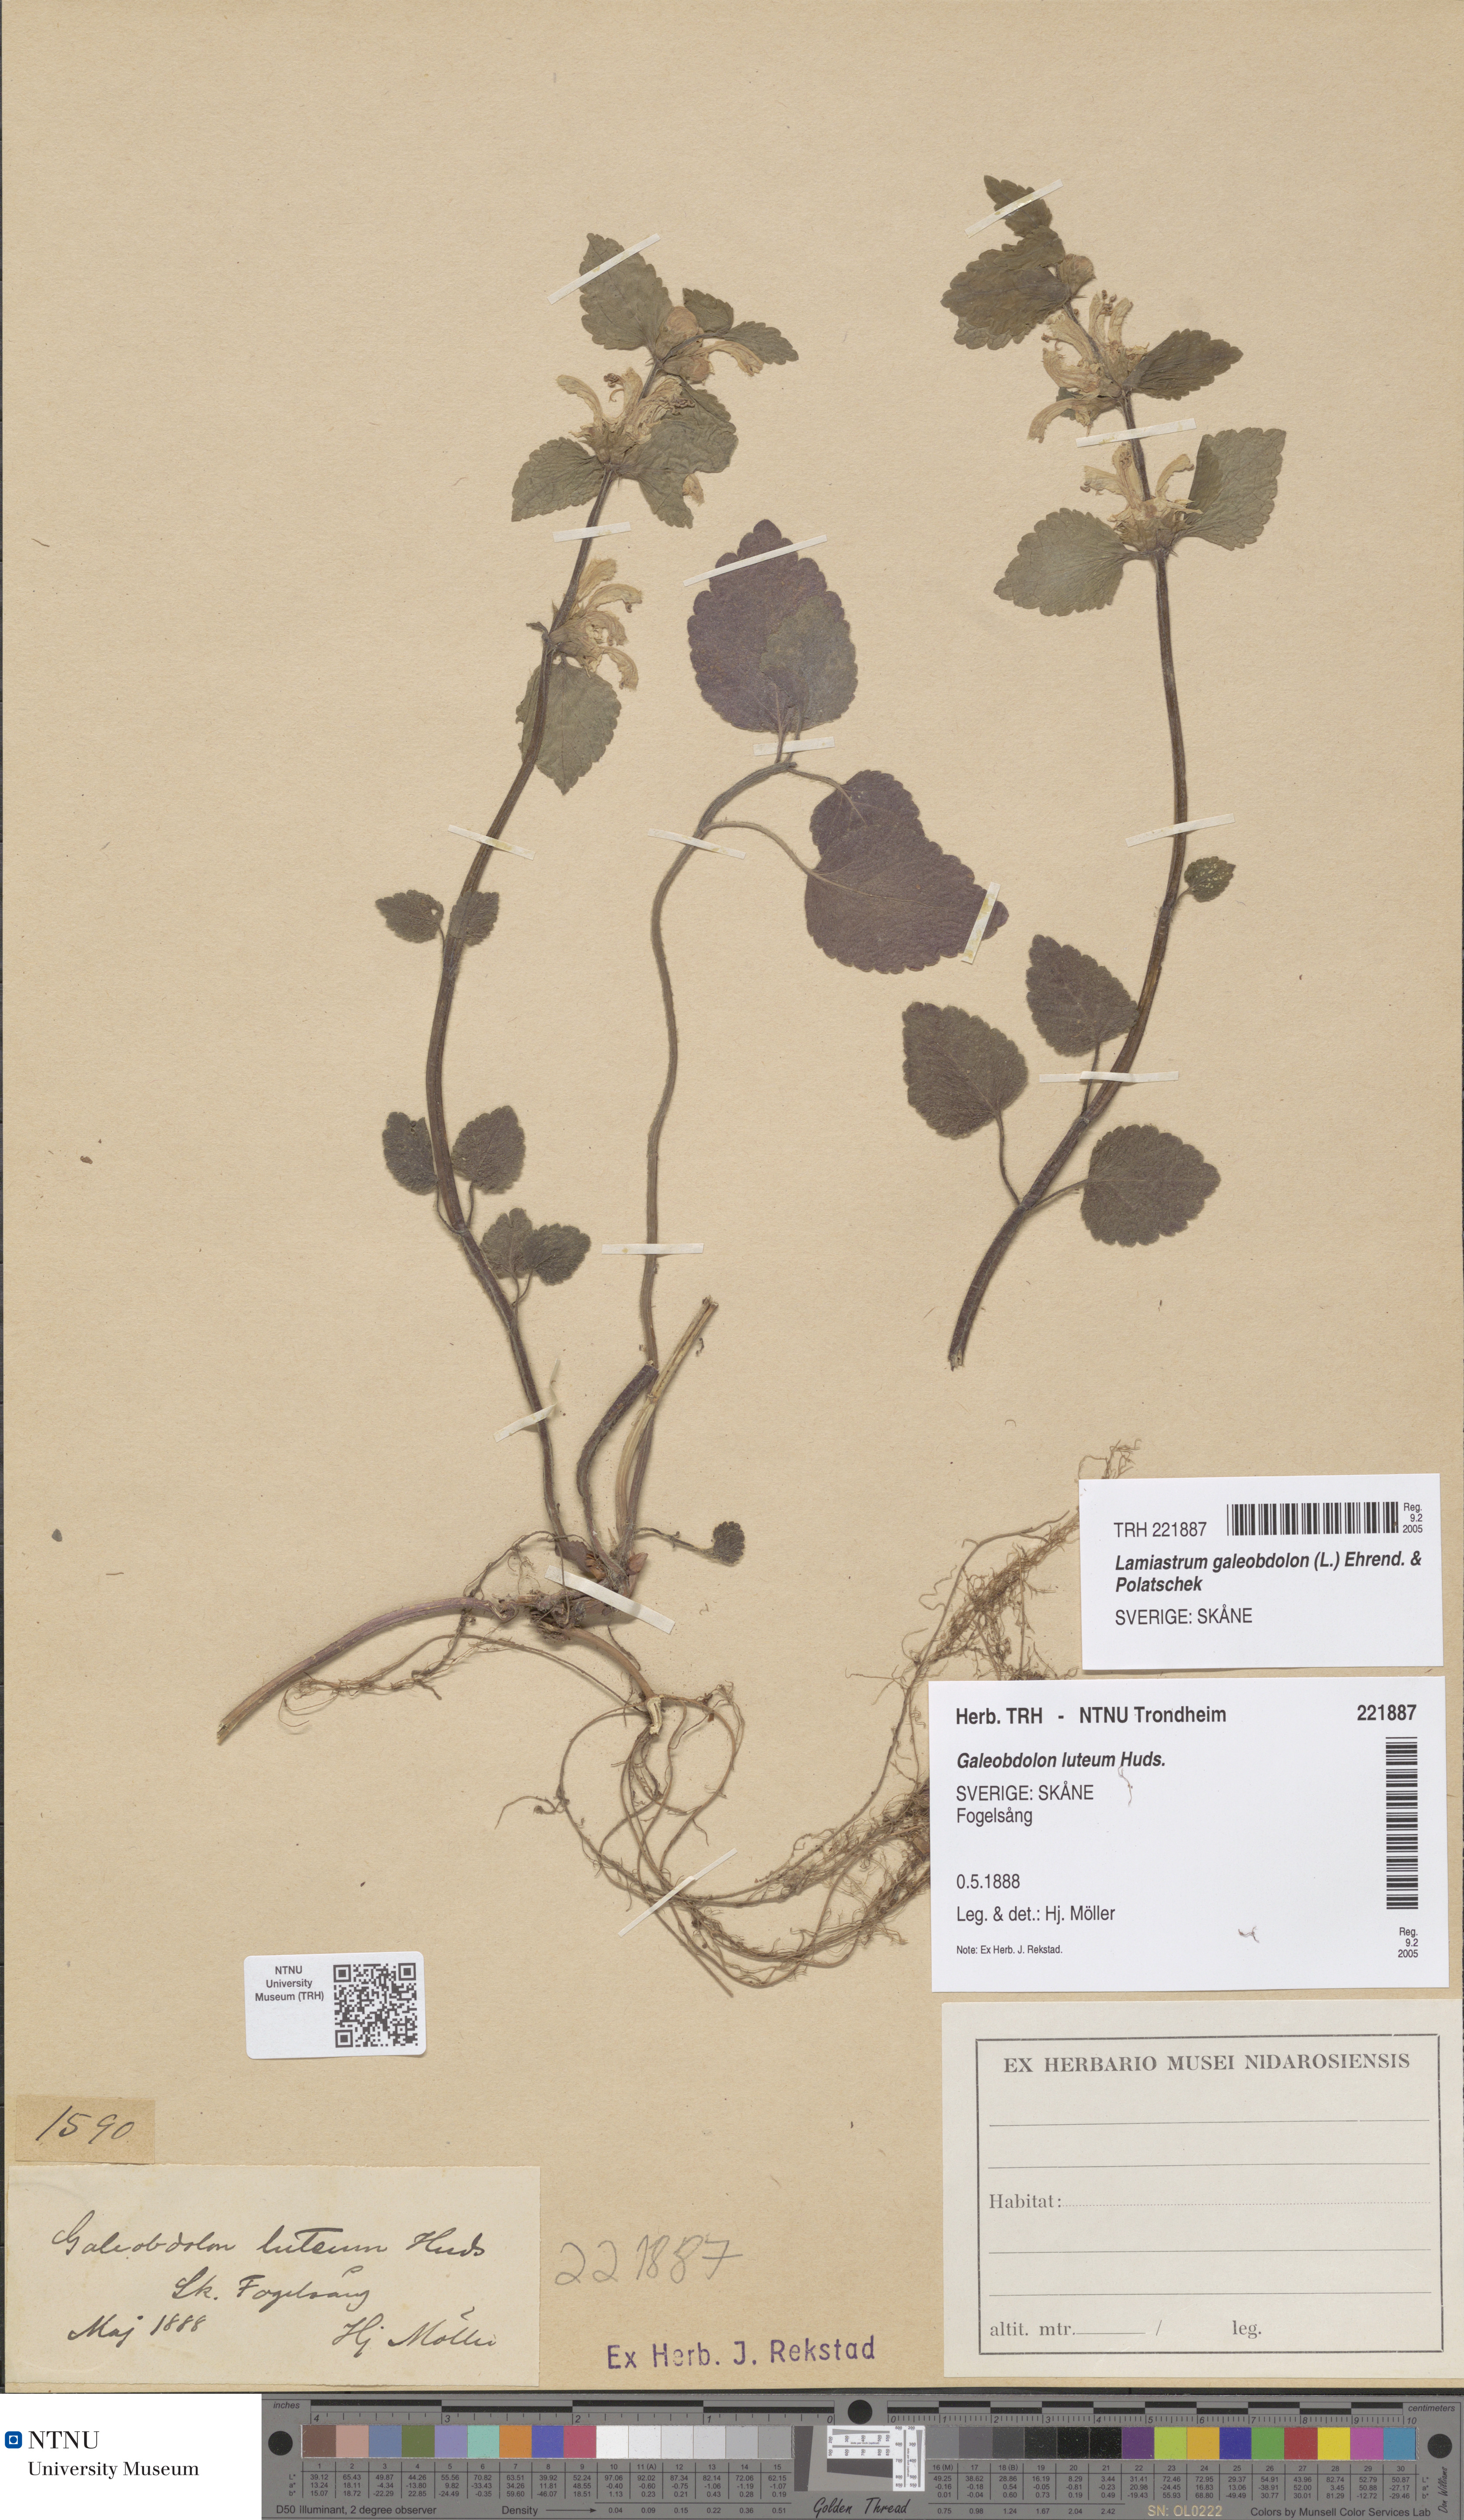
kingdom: Plantae
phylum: Tracheophyta
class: Magnoliopsida
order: Lamiales
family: Lamiaceae
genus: Lamium
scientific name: Lamium galeobdolon
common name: Yellow archangel
